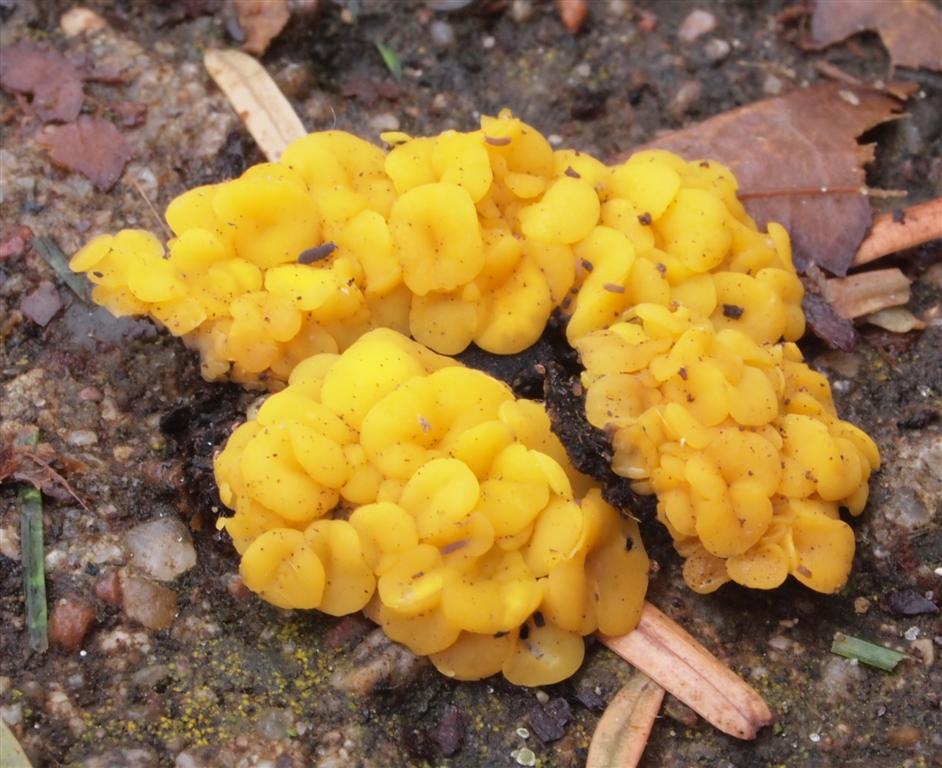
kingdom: Fungi
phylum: Ascomycota
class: Leotiomycetes
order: Helotiales
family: Pezizellaceae
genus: Calycina
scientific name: Calycina citrina
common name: almindelig gulskive
